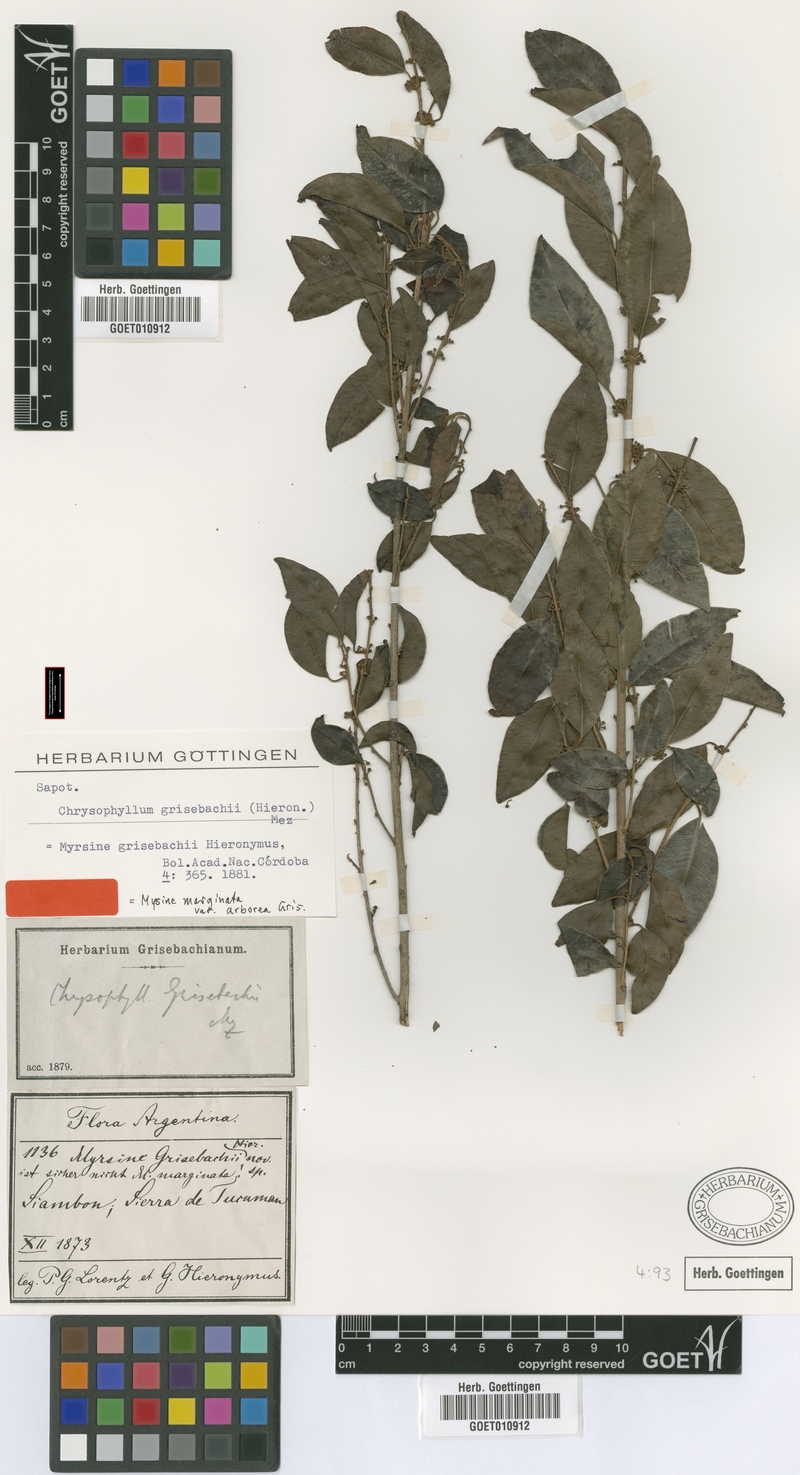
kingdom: Plantae
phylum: Tracheophyta
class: Magnoliopsida
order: Ericales
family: Sapotaceae
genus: Chrysophyllum
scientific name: Chrysophyllum marginatum
